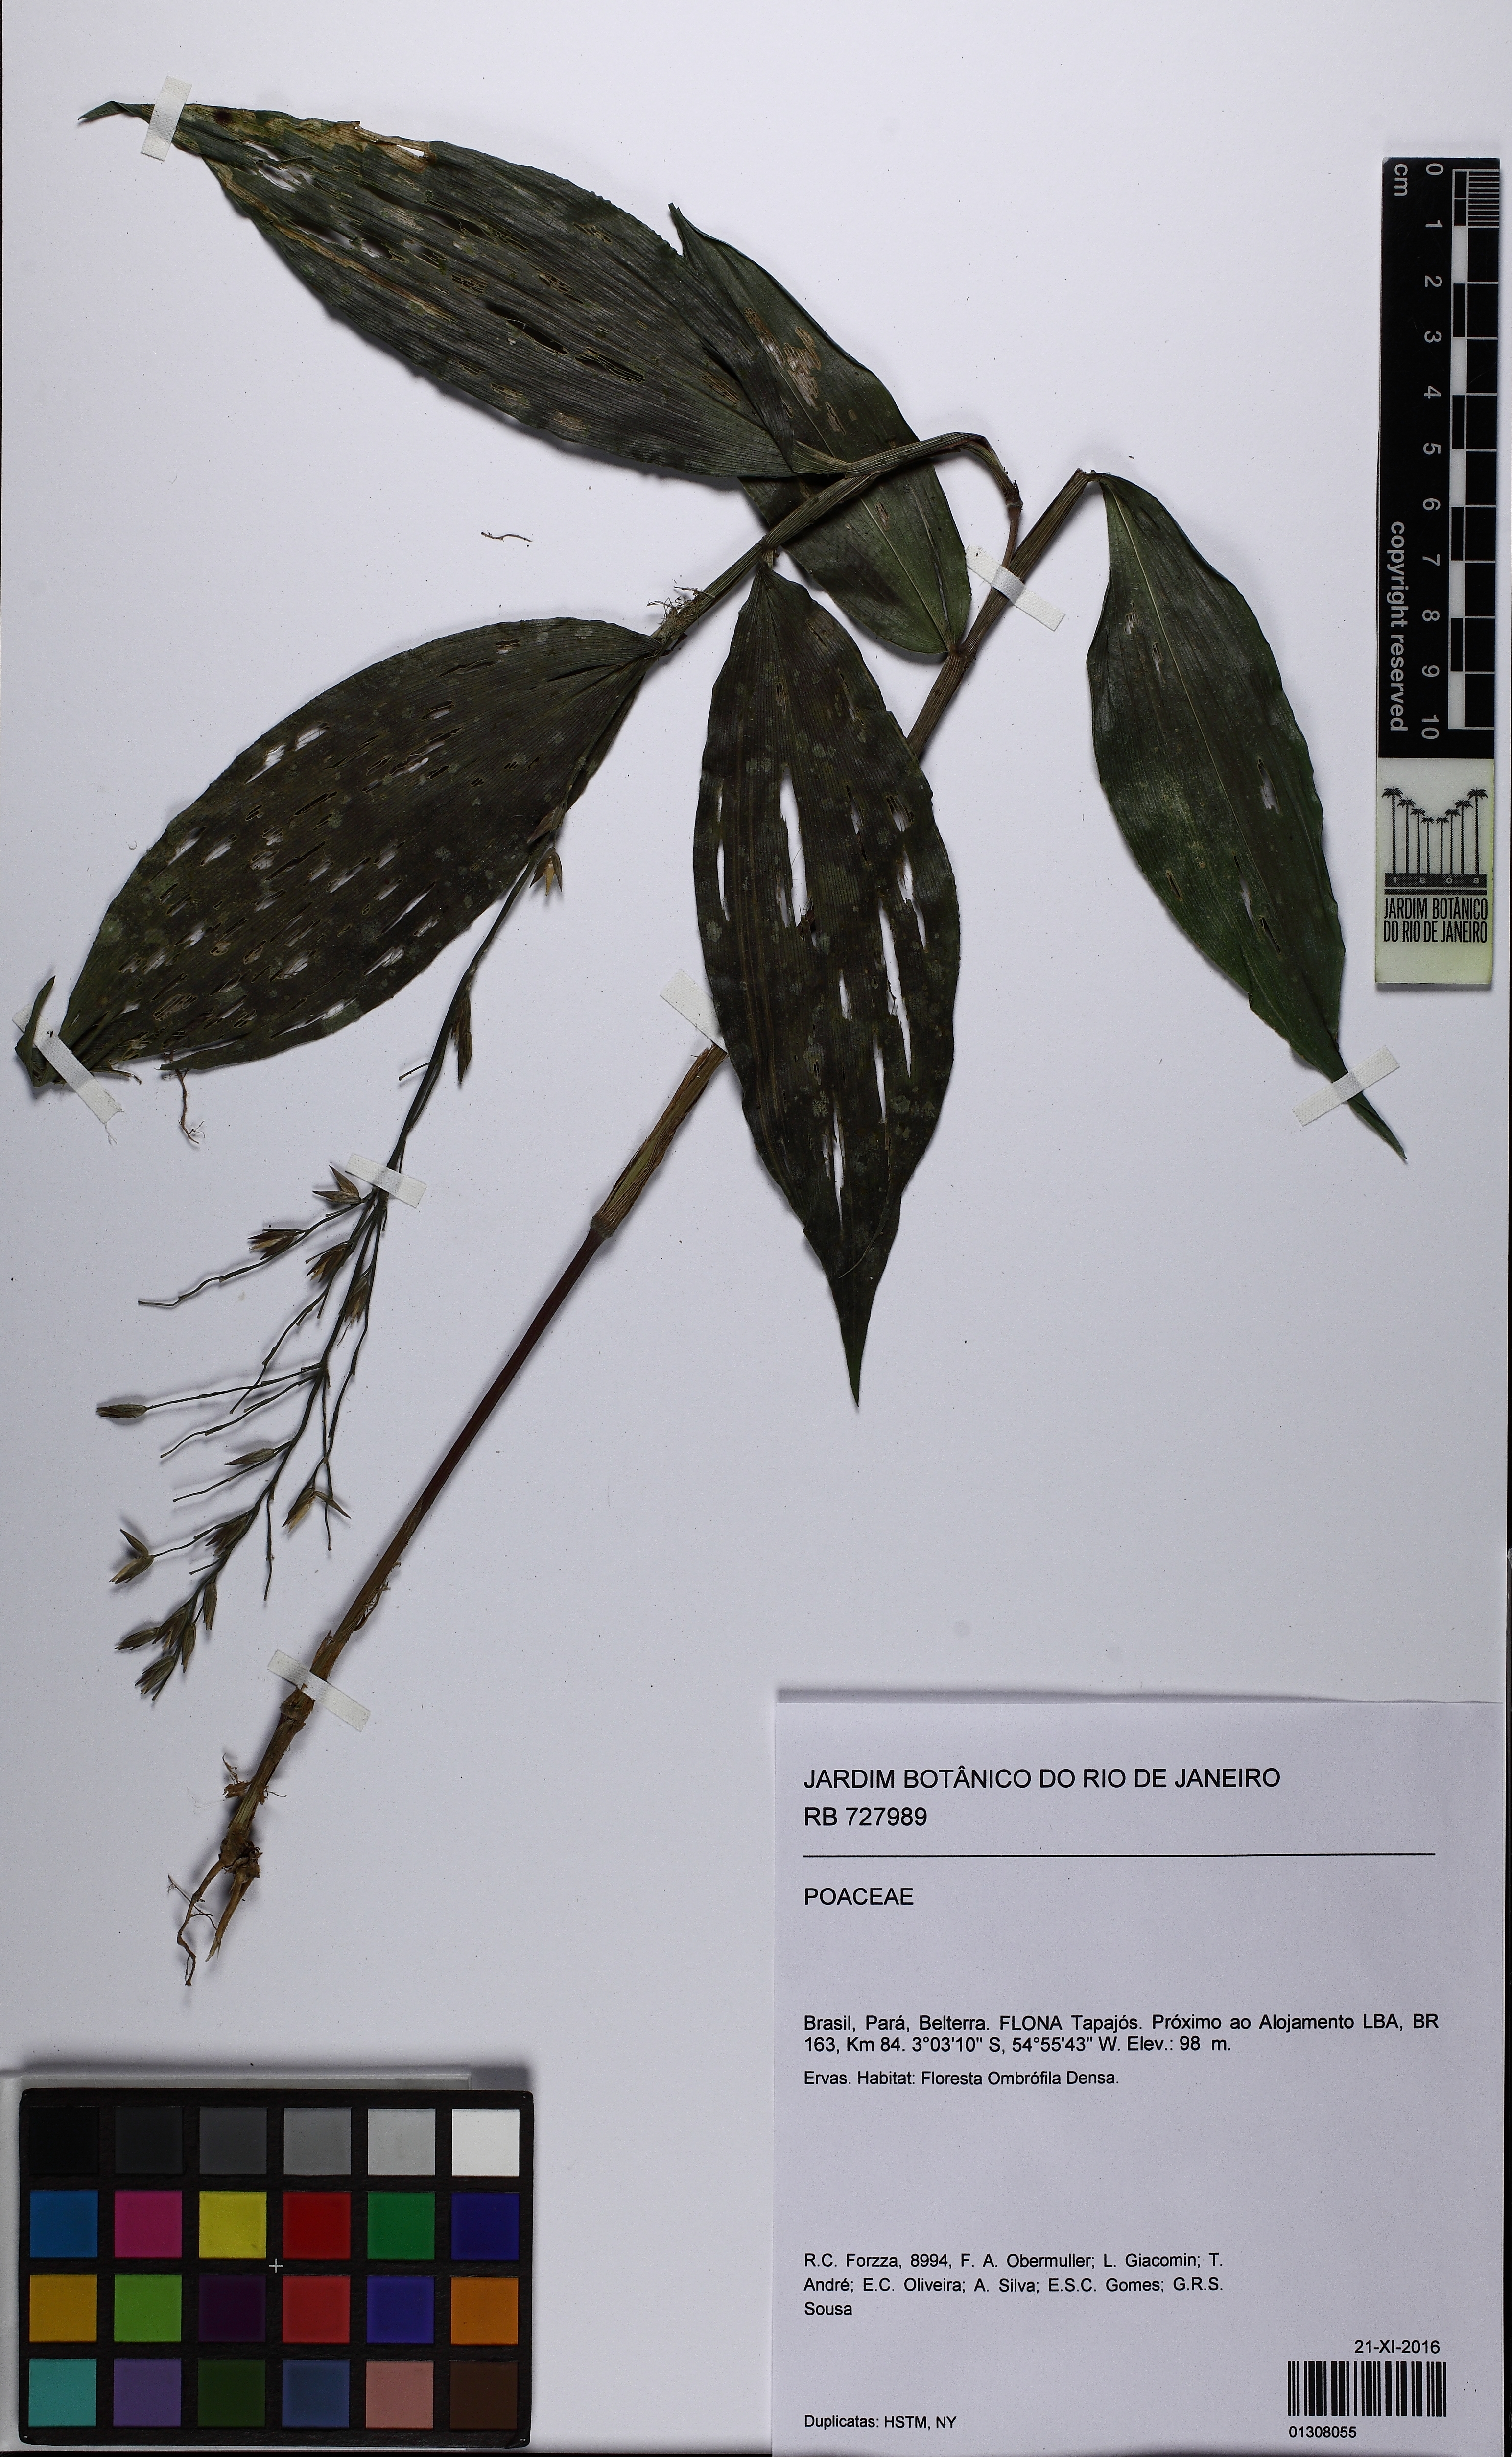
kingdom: Plantae
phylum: Tracheophyta
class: Liliopsida
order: Poales
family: Poaceae
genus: Ichnanthus
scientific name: Ichnanthus panicoides
